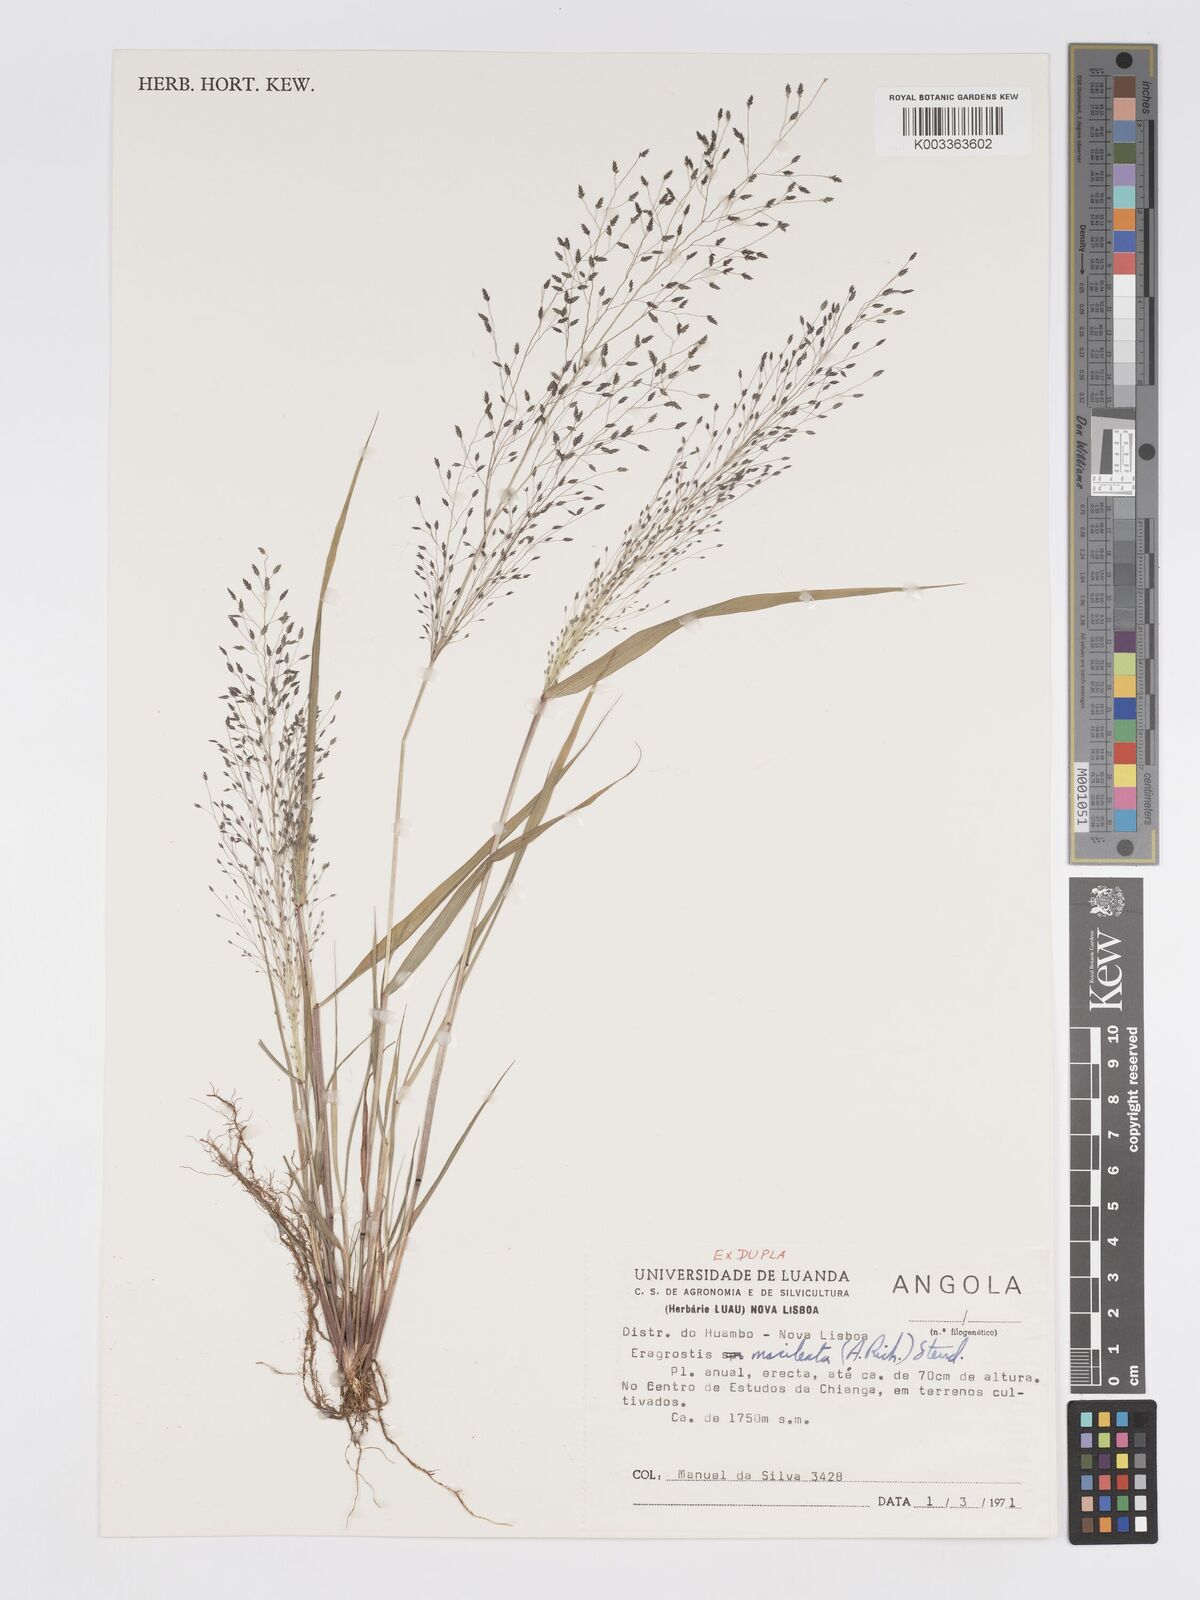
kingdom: Plantae
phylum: Tracheophyta
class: Liliopsida
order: Poales
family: Poaceae
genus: Eragrostis
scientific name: Eragrostis macilenta
